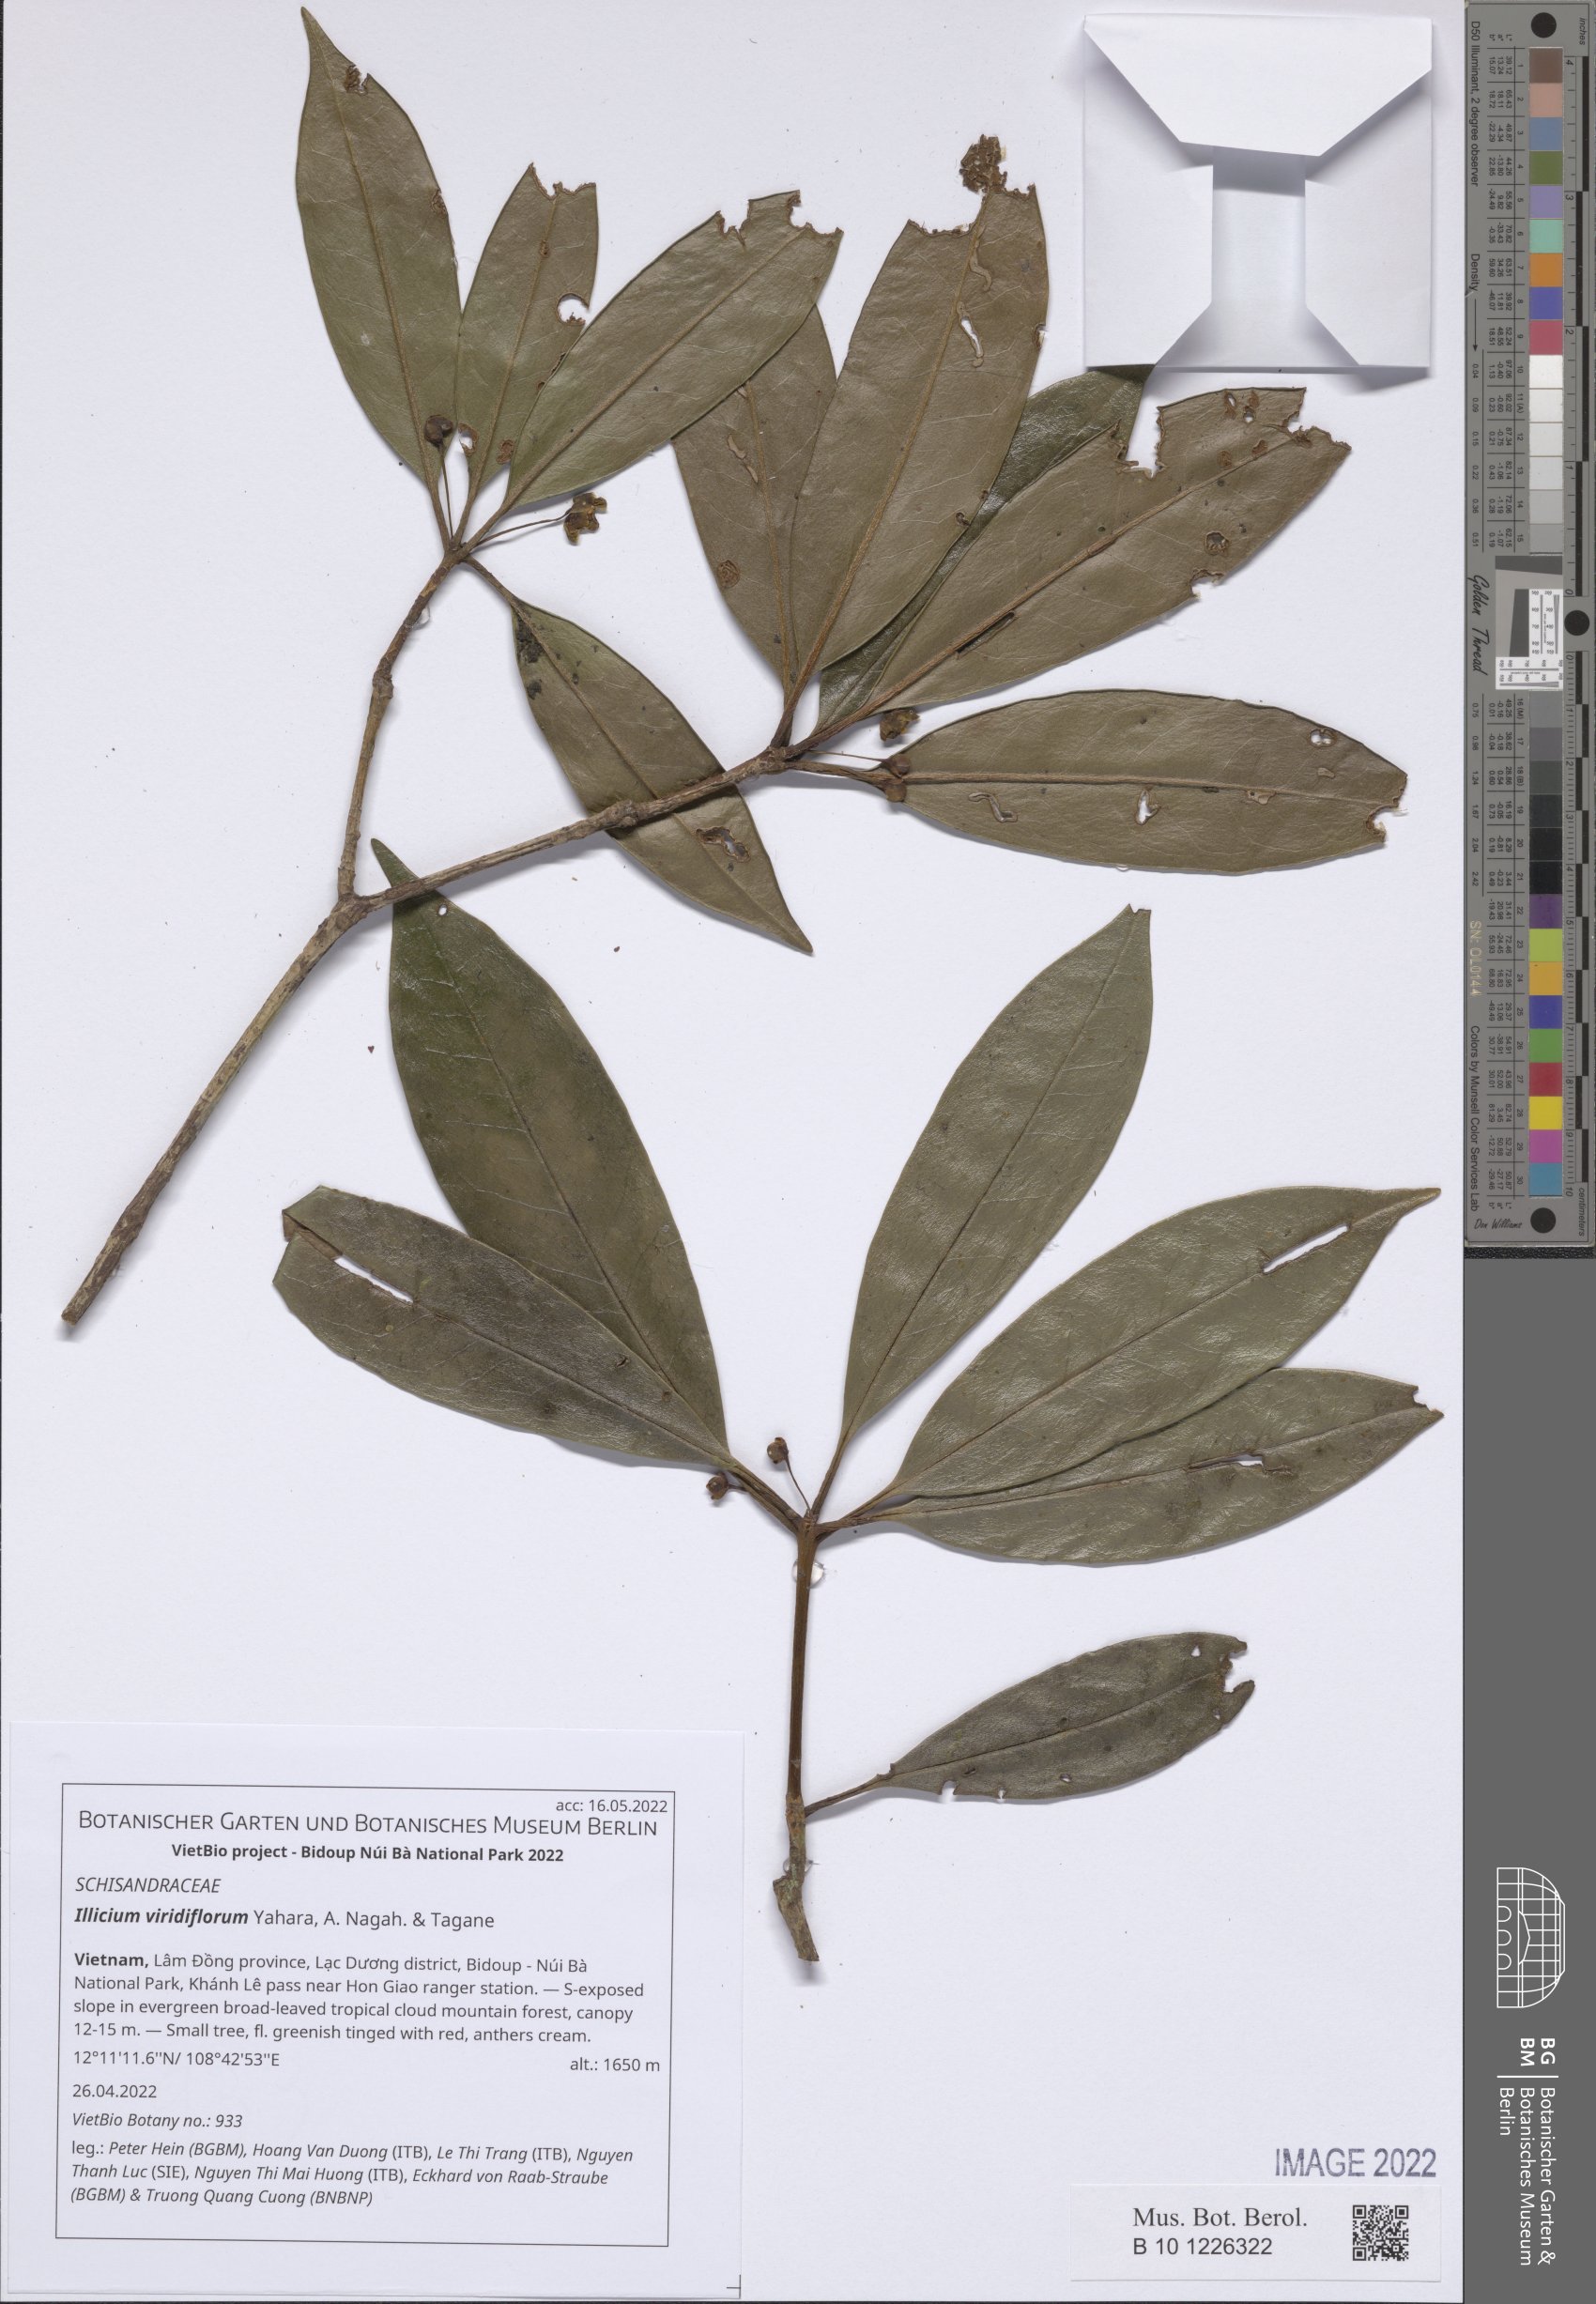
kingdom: Plantae
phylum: Tracheophyta
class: Magnoliopsida
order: Austrobaileyales
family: Schisandraceae
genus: Illicium
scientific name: Illicium viridiflorum
